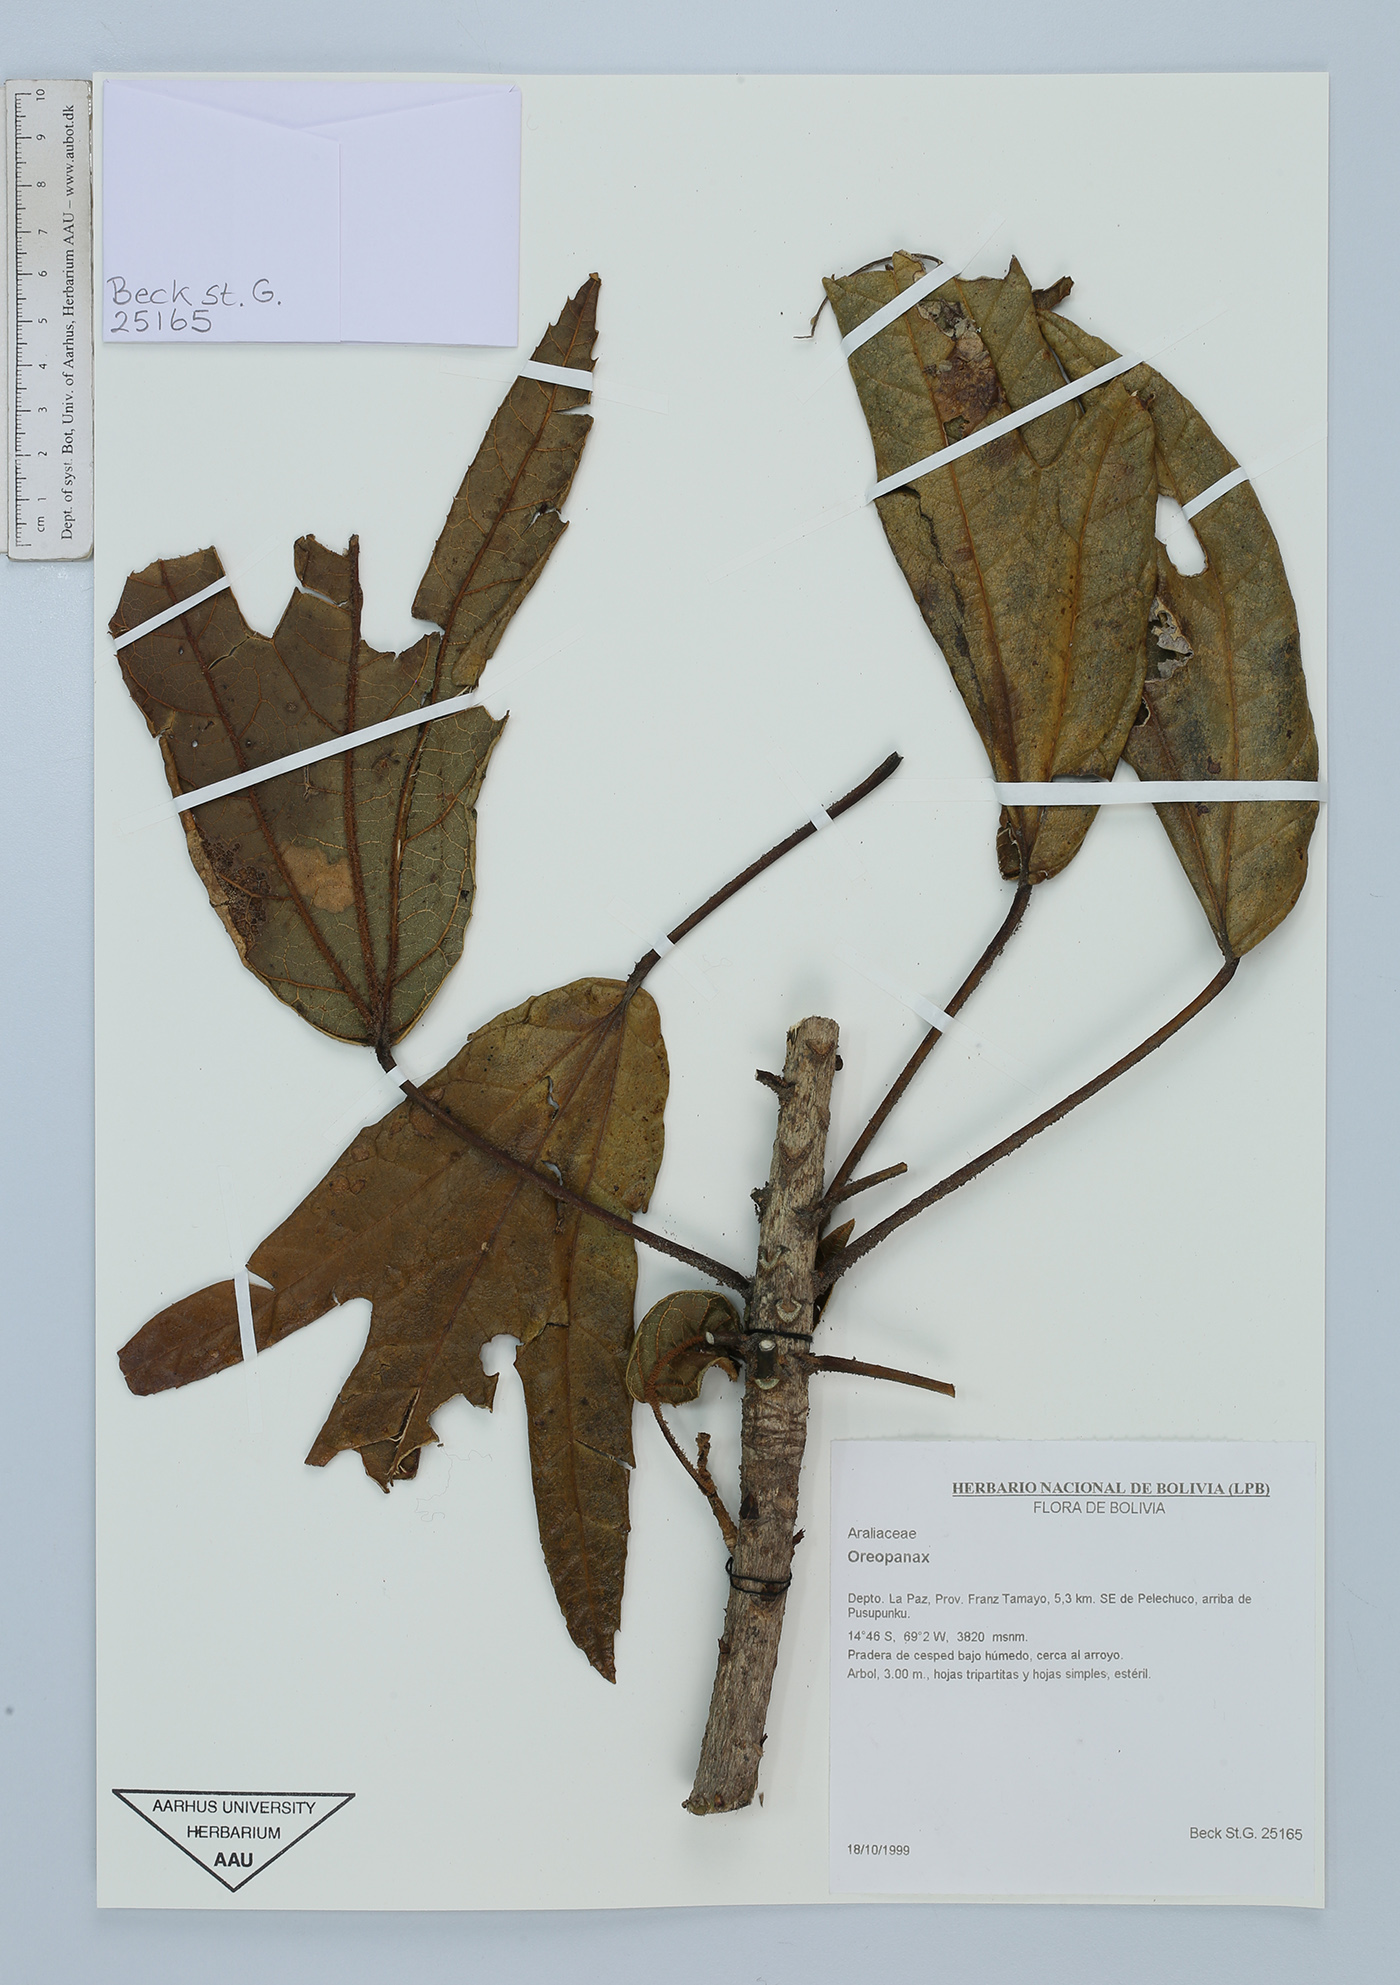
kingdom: Plantae
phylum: Tracheophyta
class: Magnoliopsida
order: Apiales
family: Araliaceae
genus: Oreopanax
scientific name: Oreopanax
